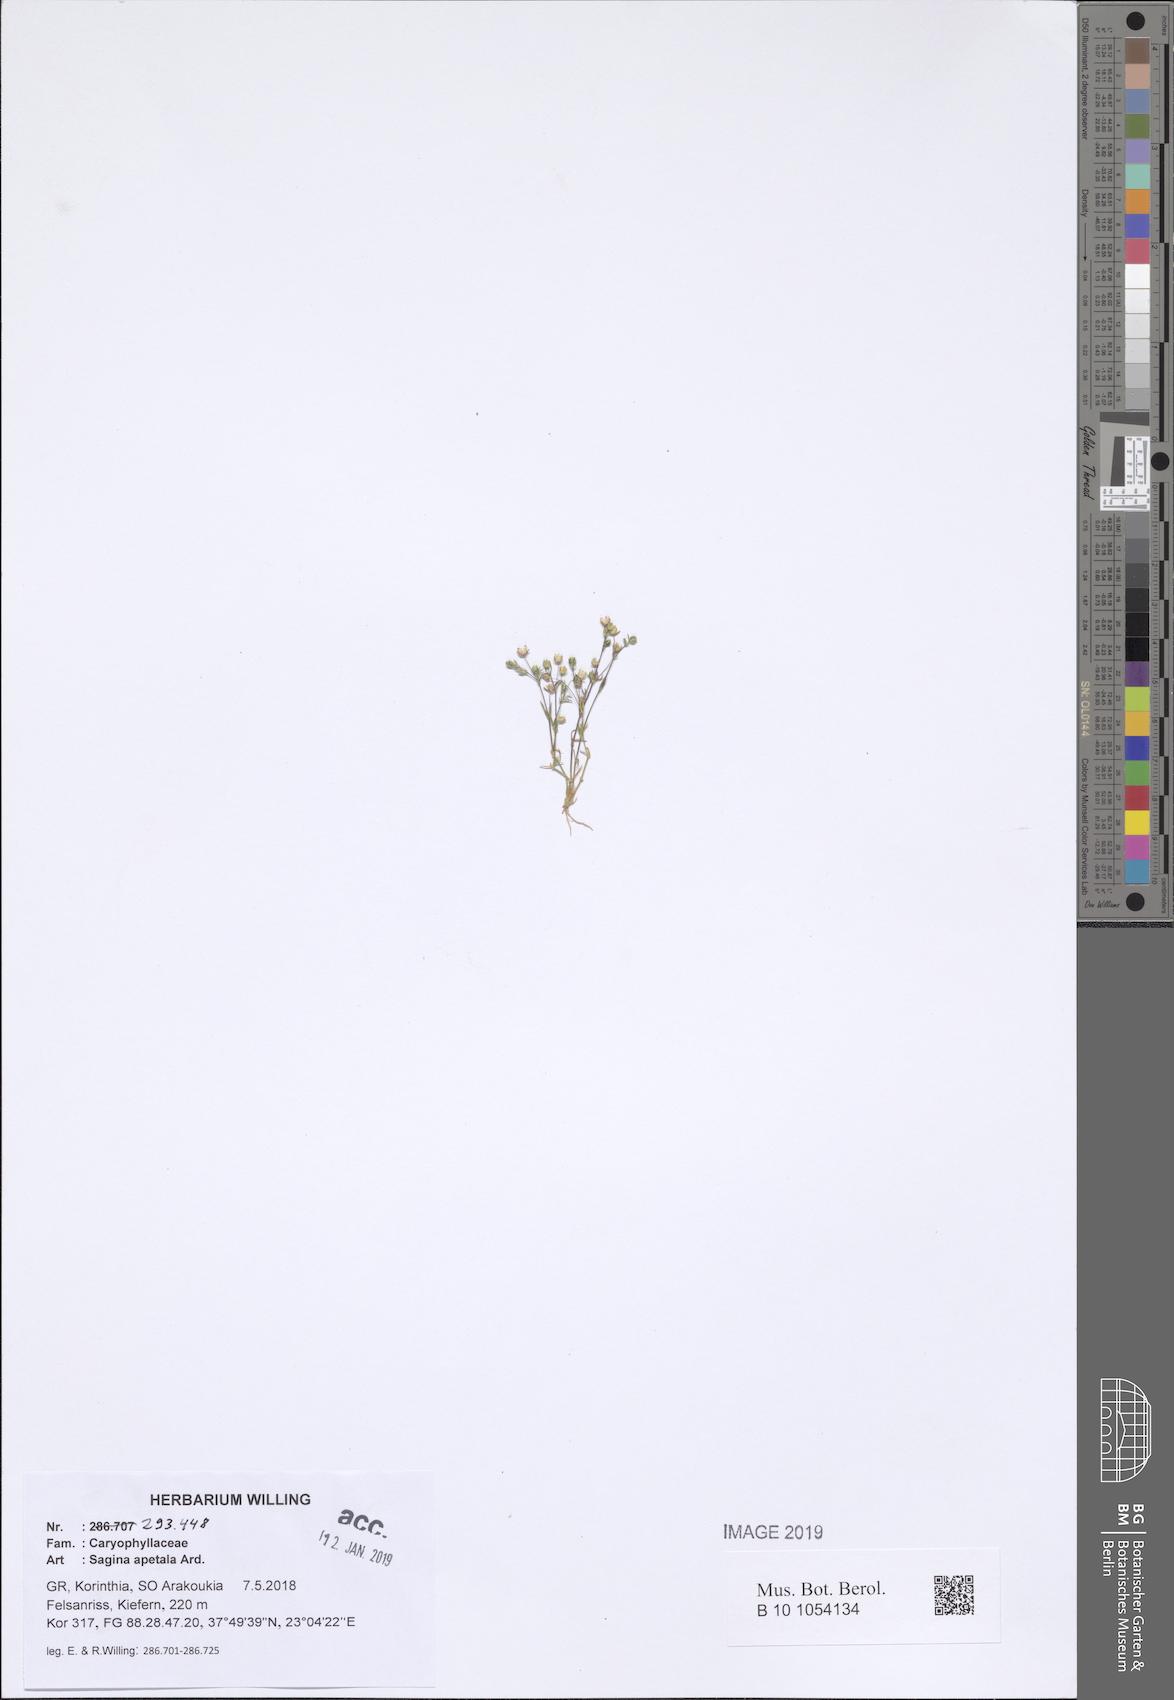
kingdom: Plantae
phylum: Tracheophyta
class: Magnoliopsida
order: Caryophyllales
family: Caryophyllaceae
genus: Sagina
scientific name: Sagina apetala
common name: Annual pearlwort
